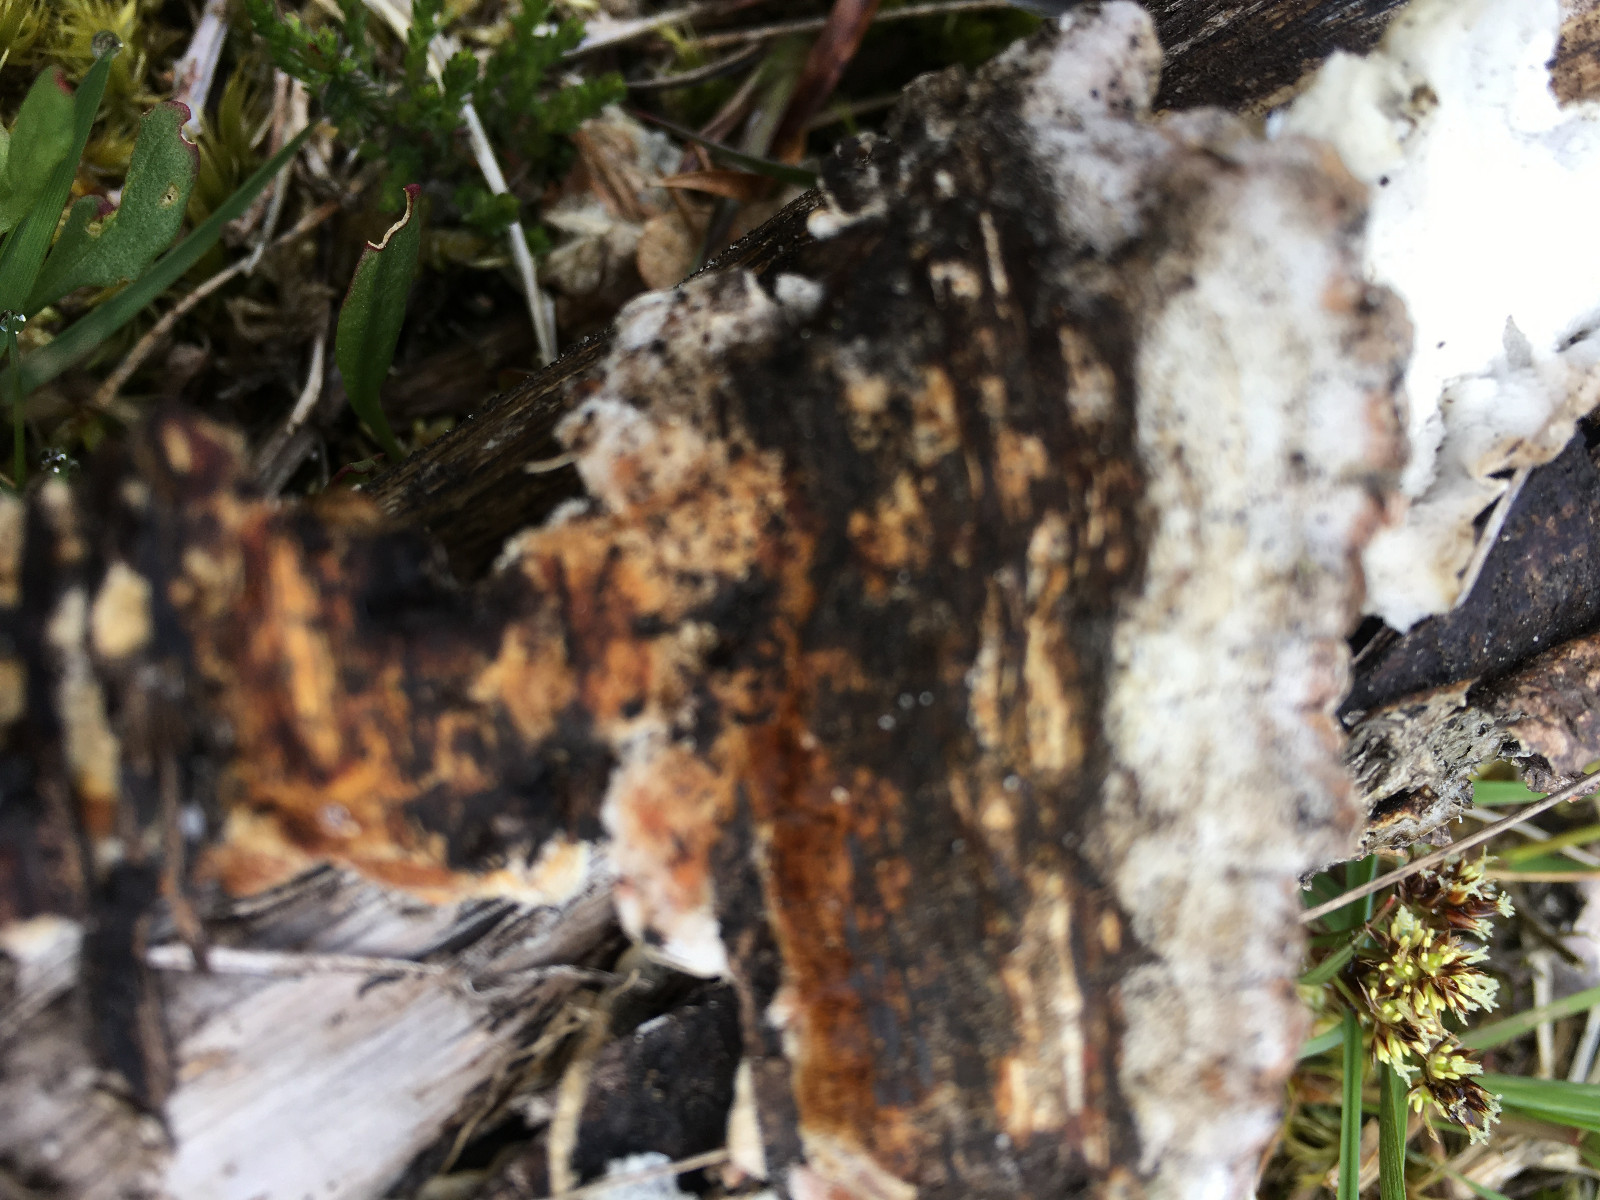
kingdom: Fungi
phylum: Basidiomycota
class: Agaricomycetes
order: Russulales
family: Stereaceae
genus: Stereum
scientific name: Stereum hirsutum
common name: håret lædersvamp
